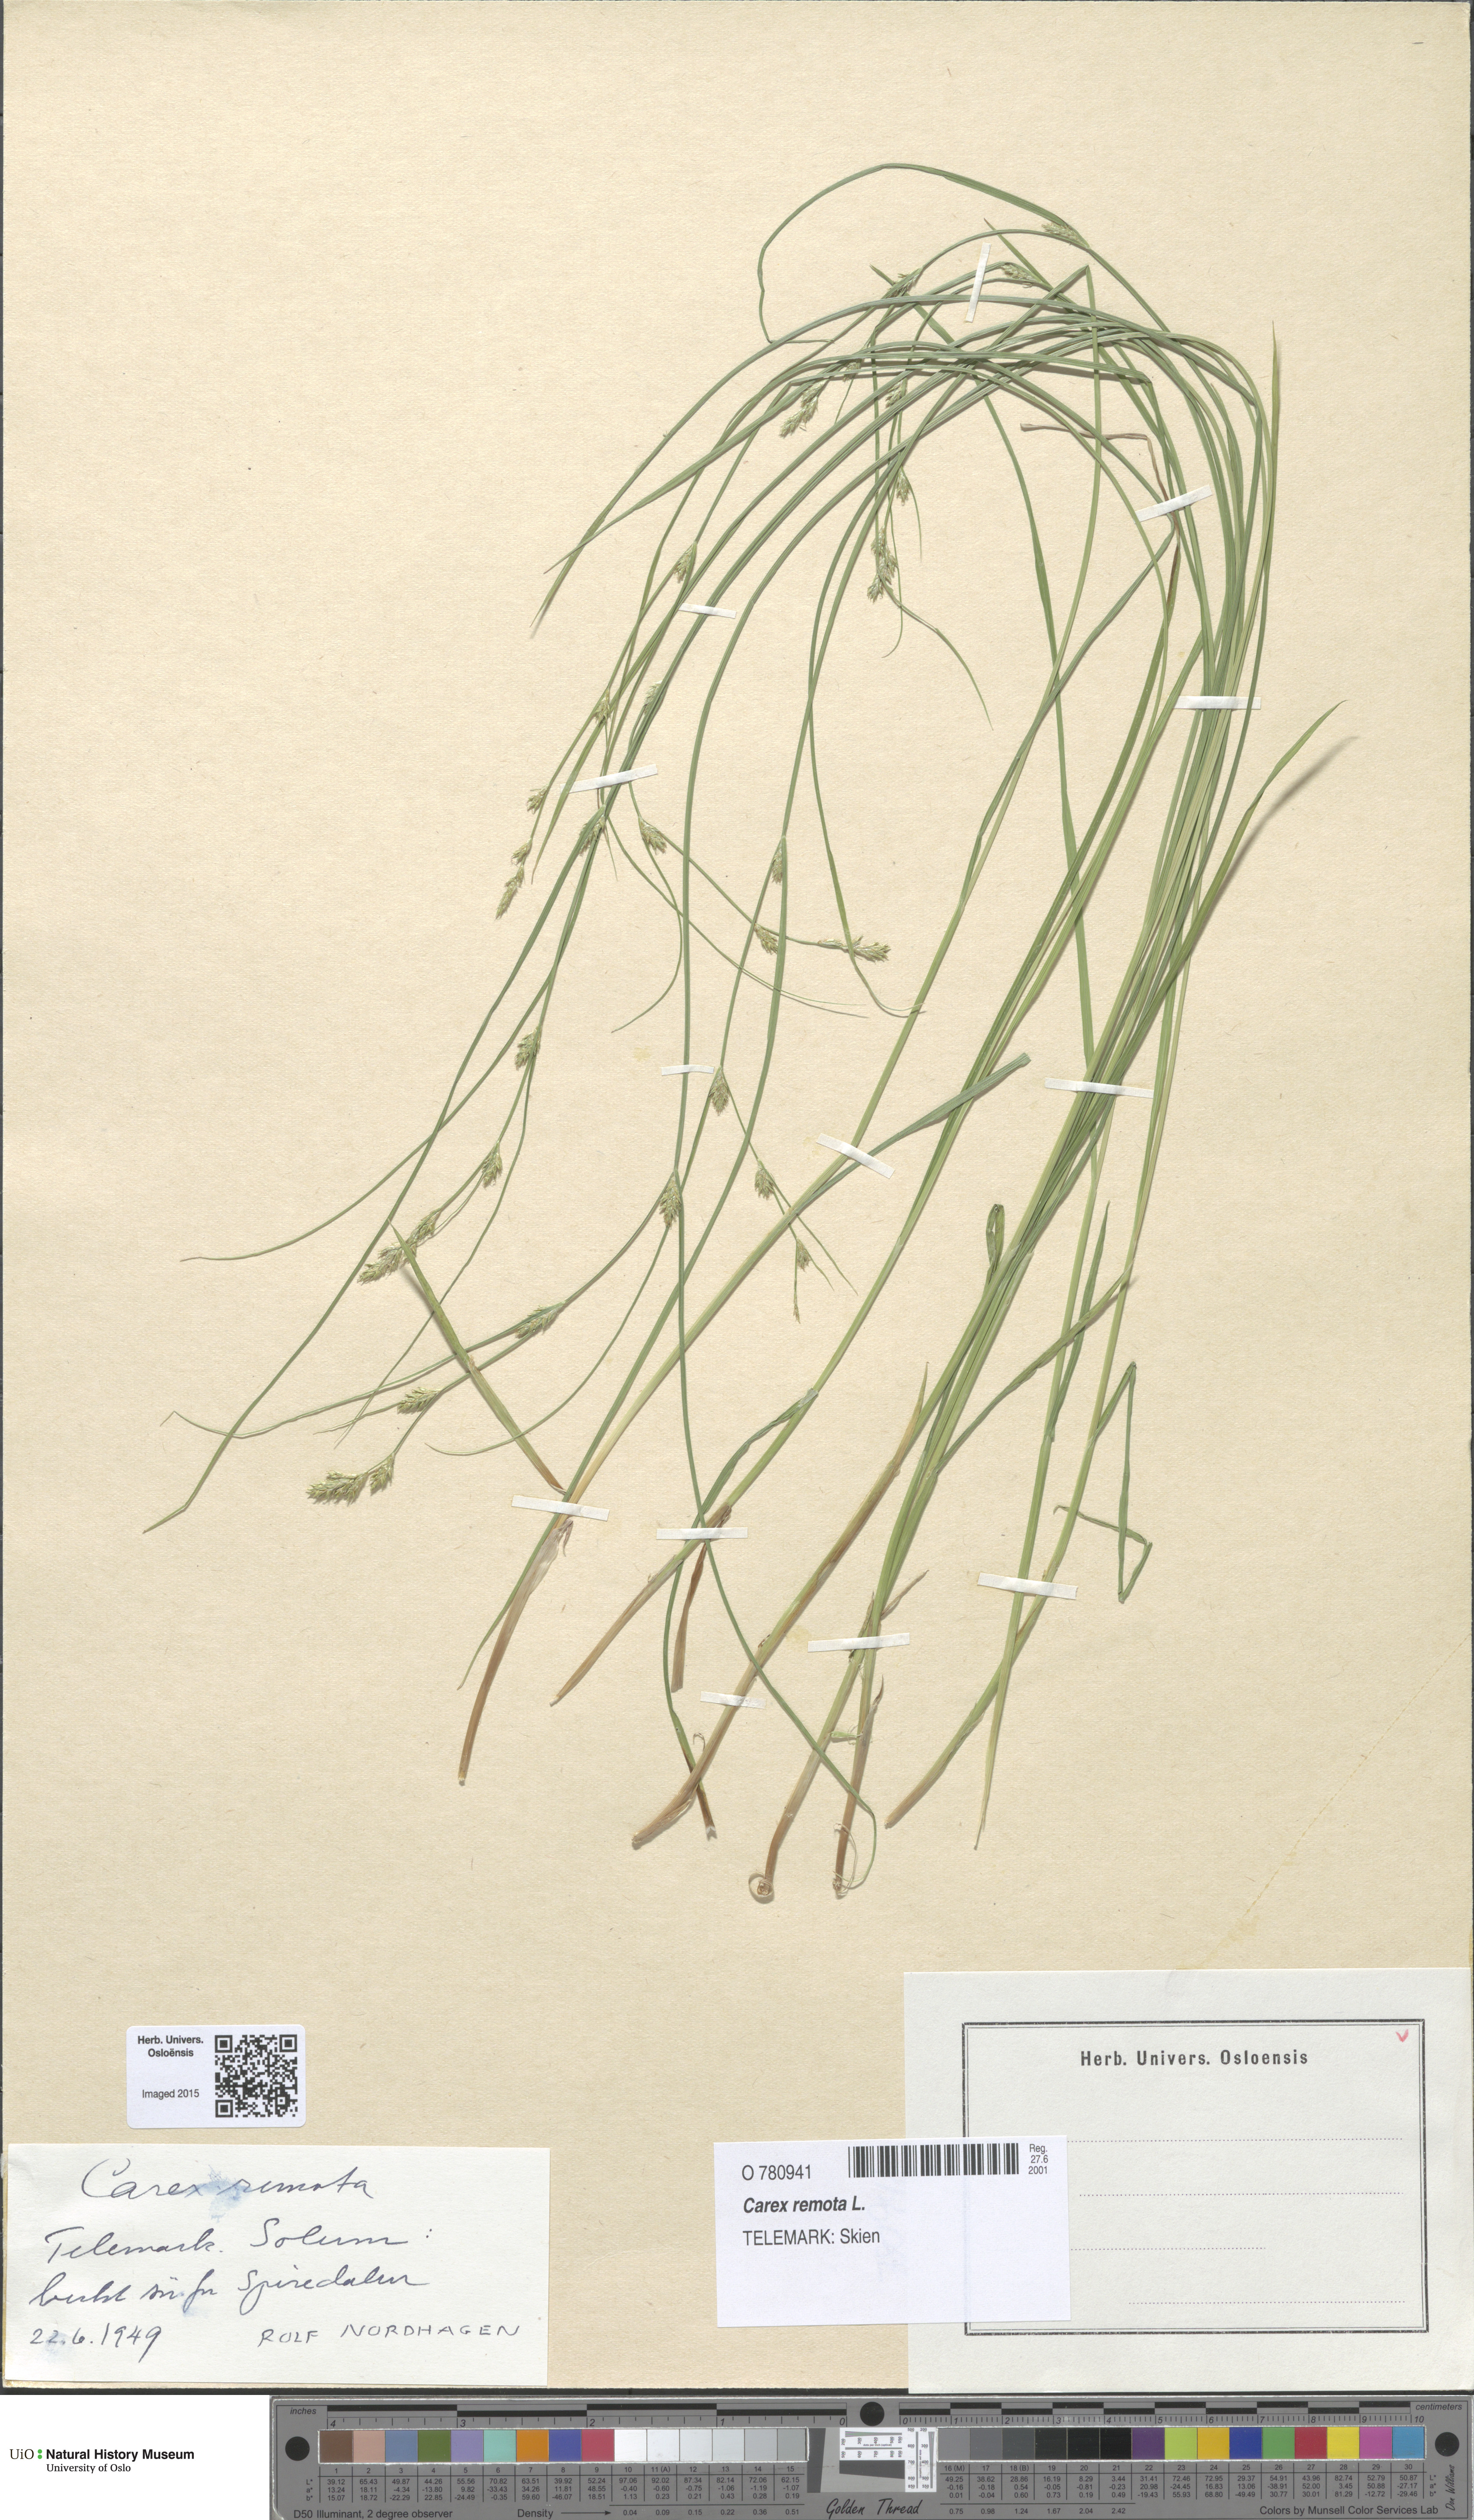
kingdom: Plantae
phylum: Tracheophyta
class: Liliopsida
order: Poales
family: Cyperaceae
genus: Carex
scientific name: Carex remota
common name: Remote sedge
